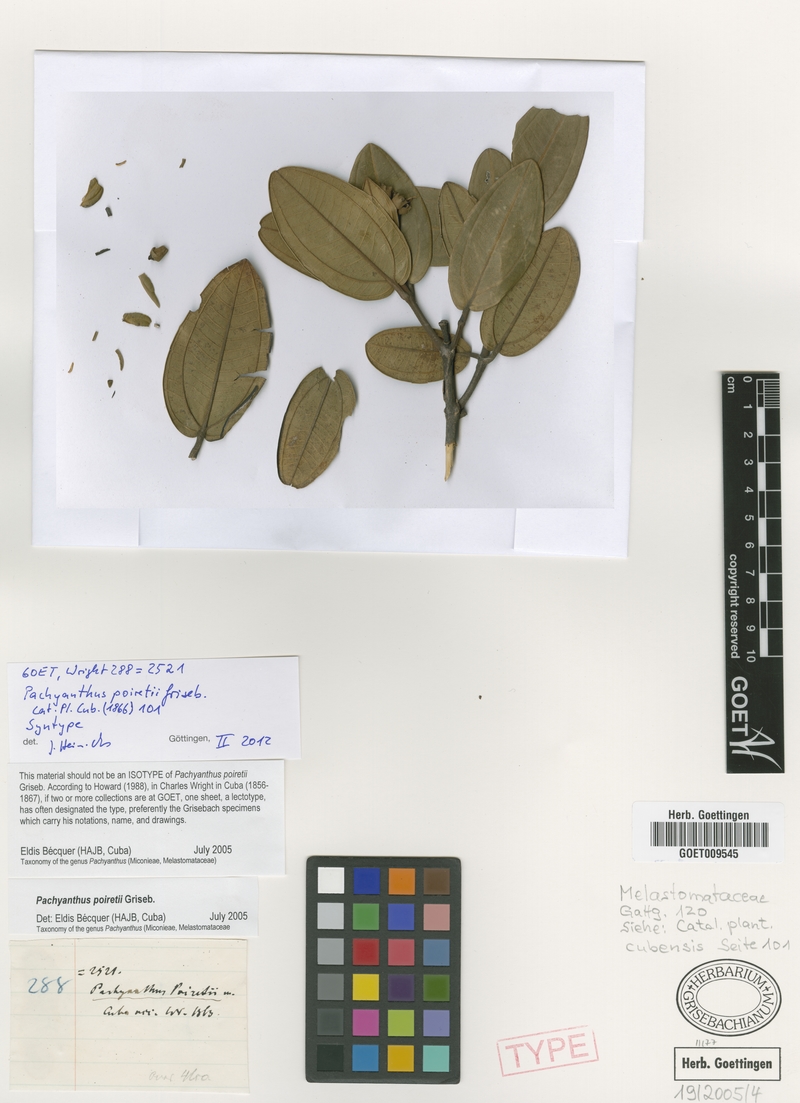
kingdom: Plantae
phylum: Tracheophyta
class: Magnoliopsida
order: Myrtales
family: Melastomataceae
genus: Miconia
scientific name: Miconia poiretii
